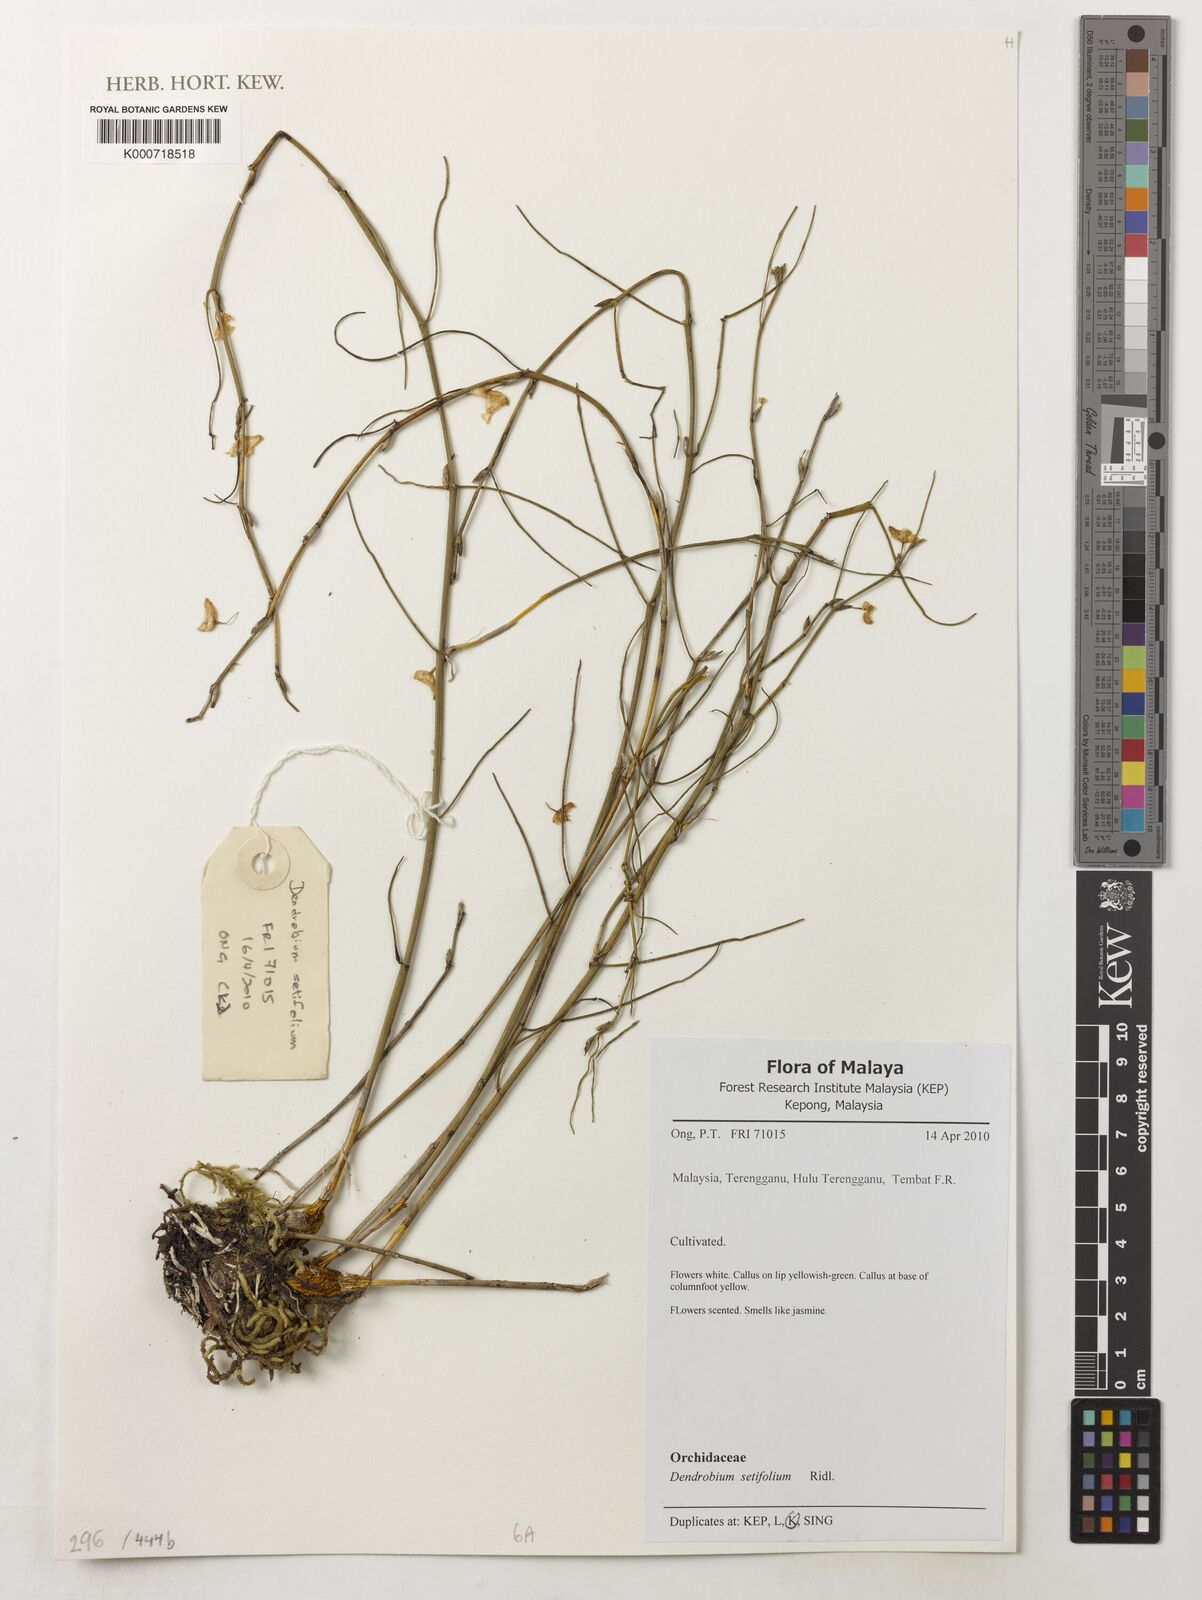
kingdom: Plantae
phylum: Tracheophyta
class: Liliopsida
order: Asparagales
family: Orchidaceae
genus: Dendrobium
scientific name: Dendrobium setifolium
